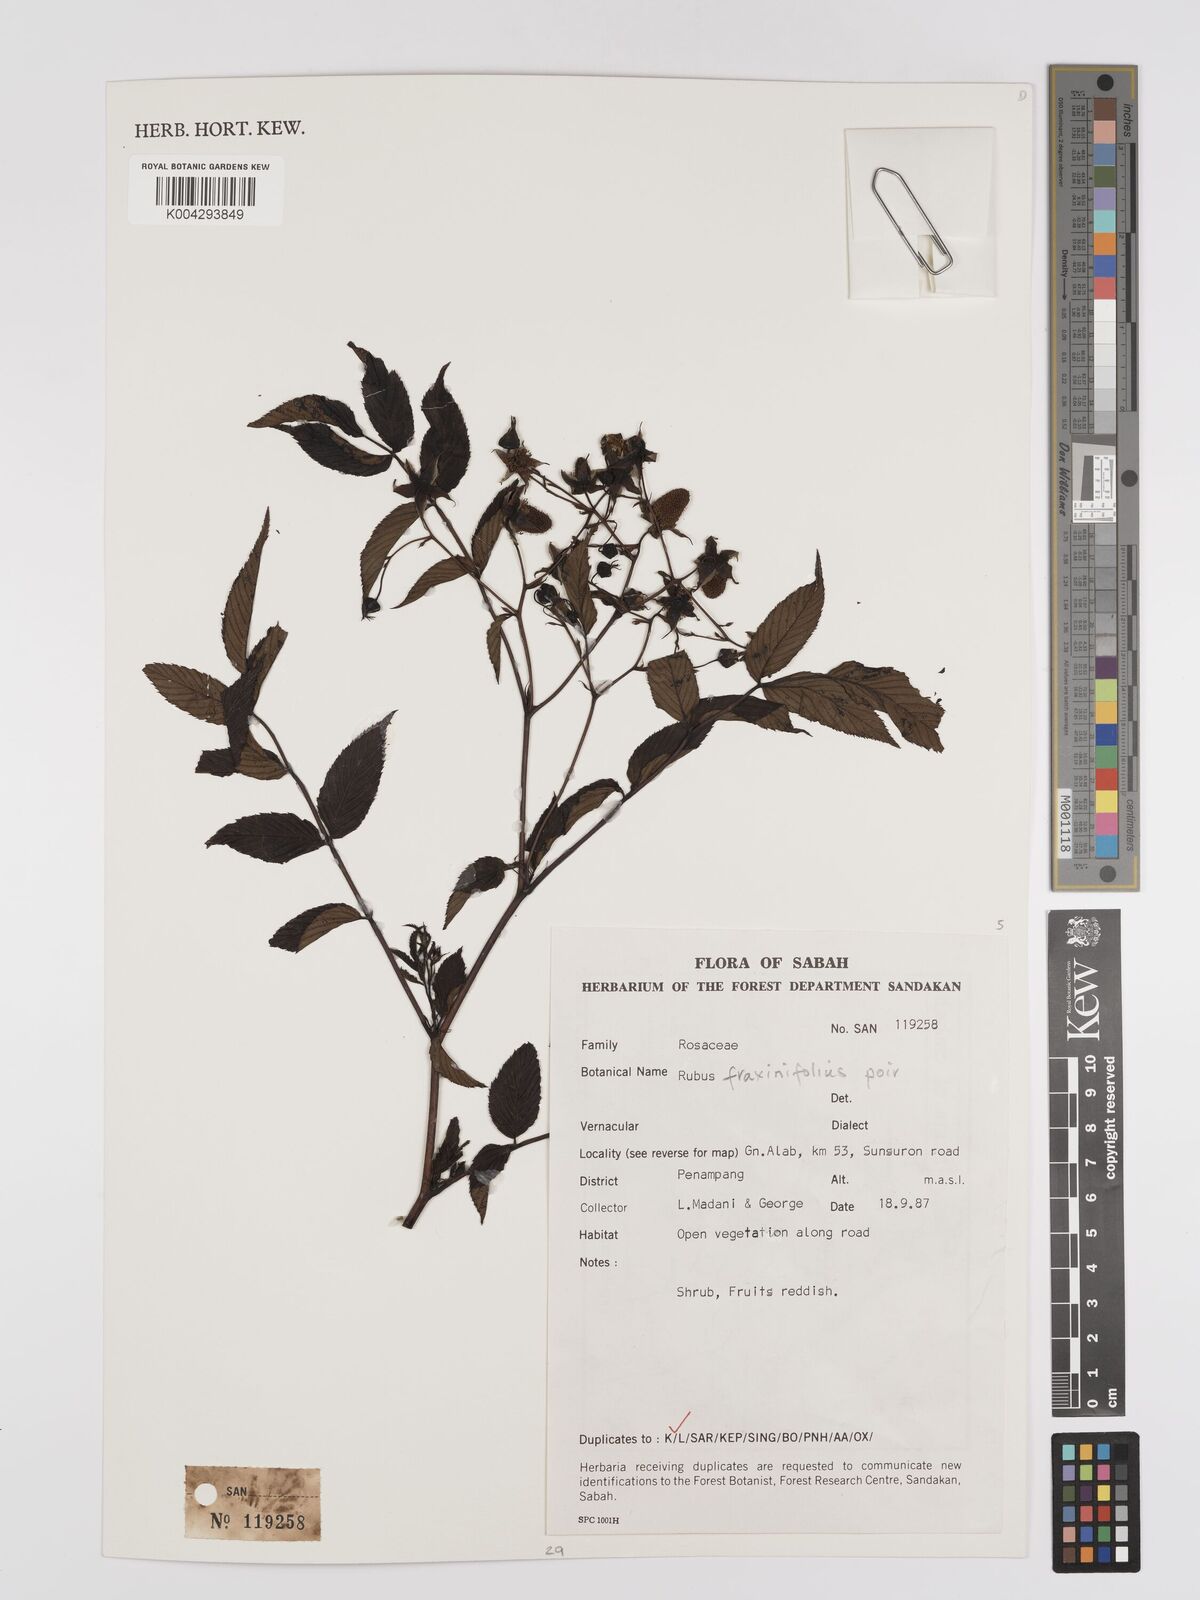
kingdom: Plantae
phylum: Tracheophyta
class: Magnoliopsida
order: Rosales
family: Rosaceae
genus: Rubus
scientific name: Rubus fraxinifolius
